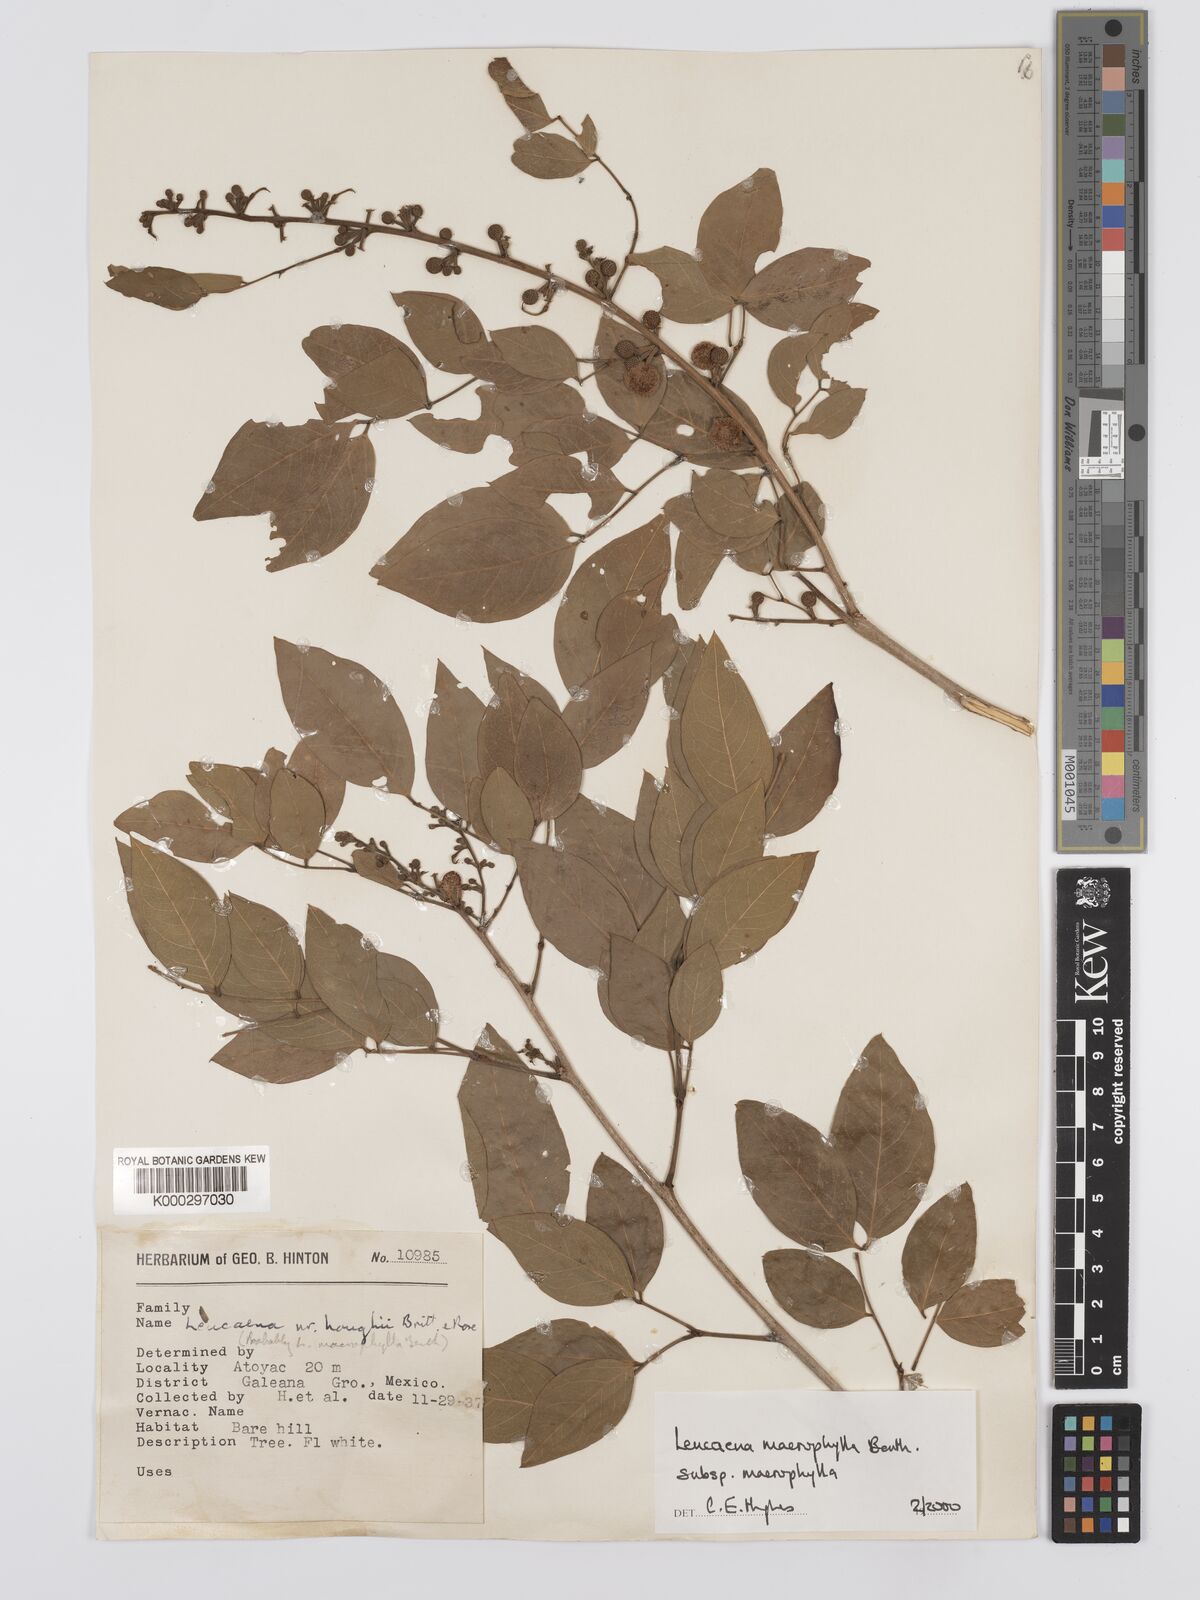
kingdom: Plantae
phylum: Tracheophyta
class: Magnoliopsida
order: Fabales
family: Fabaceae
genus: Leucaena
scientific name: Leucaena macrophylla
